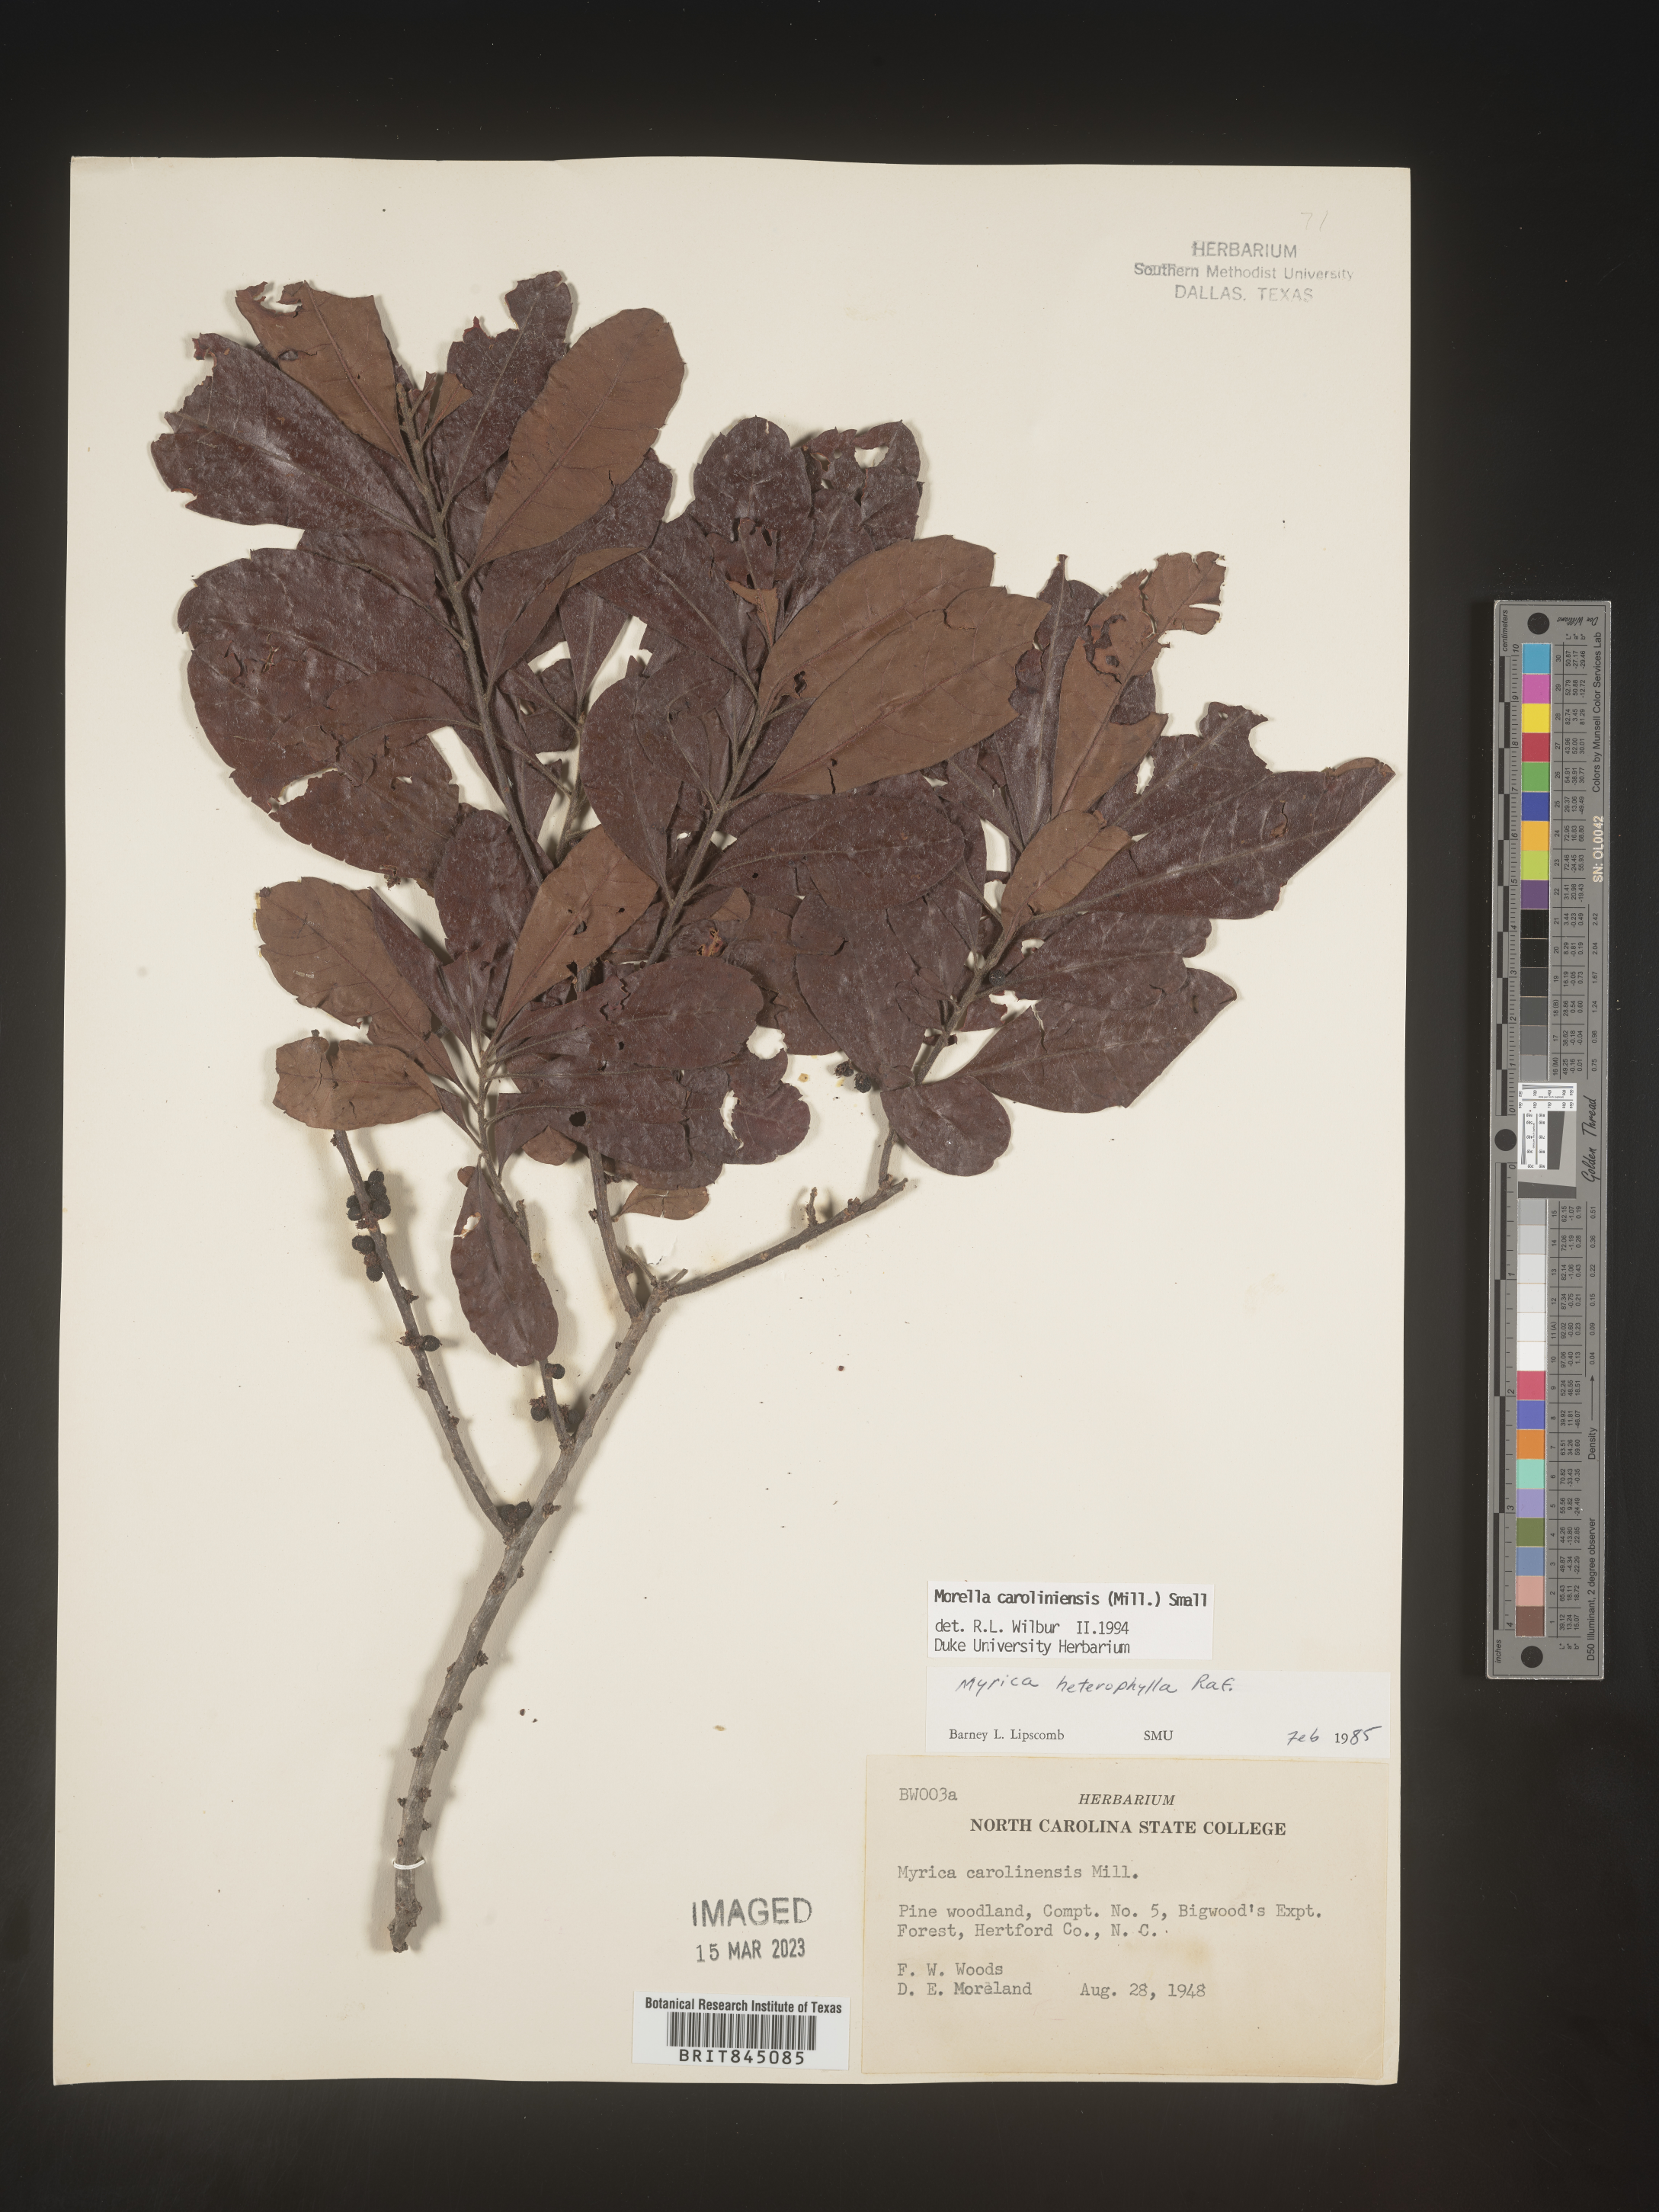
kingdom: Plantae
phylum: Tracheophyta
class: Magnoliopsida
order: Fagales
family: Myricaceae
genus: Morella
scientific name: Morella caroliniensis
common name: Evergreen bayberry
